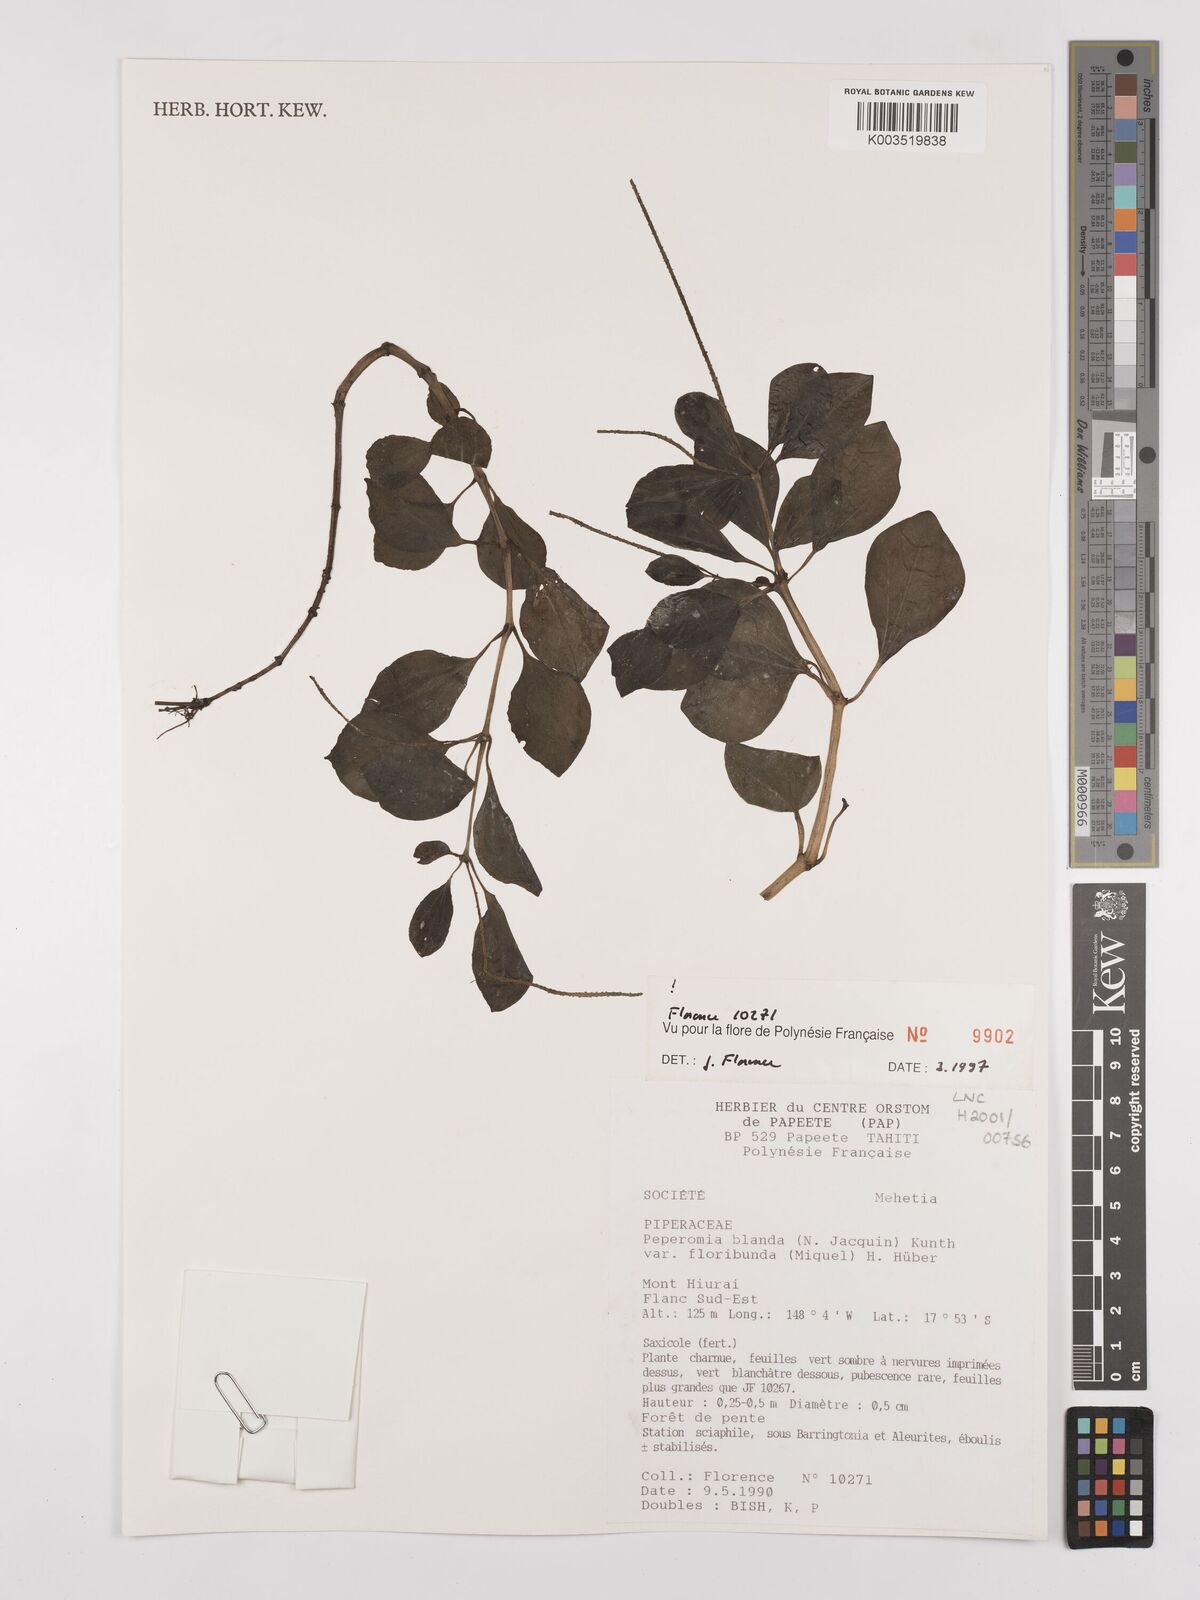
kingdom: Plantae
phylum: Tracheophyta
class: Magnoliopsida
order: Piperales
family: Piperaceae
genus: Peperomia
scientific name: Peperomia leptostachya
